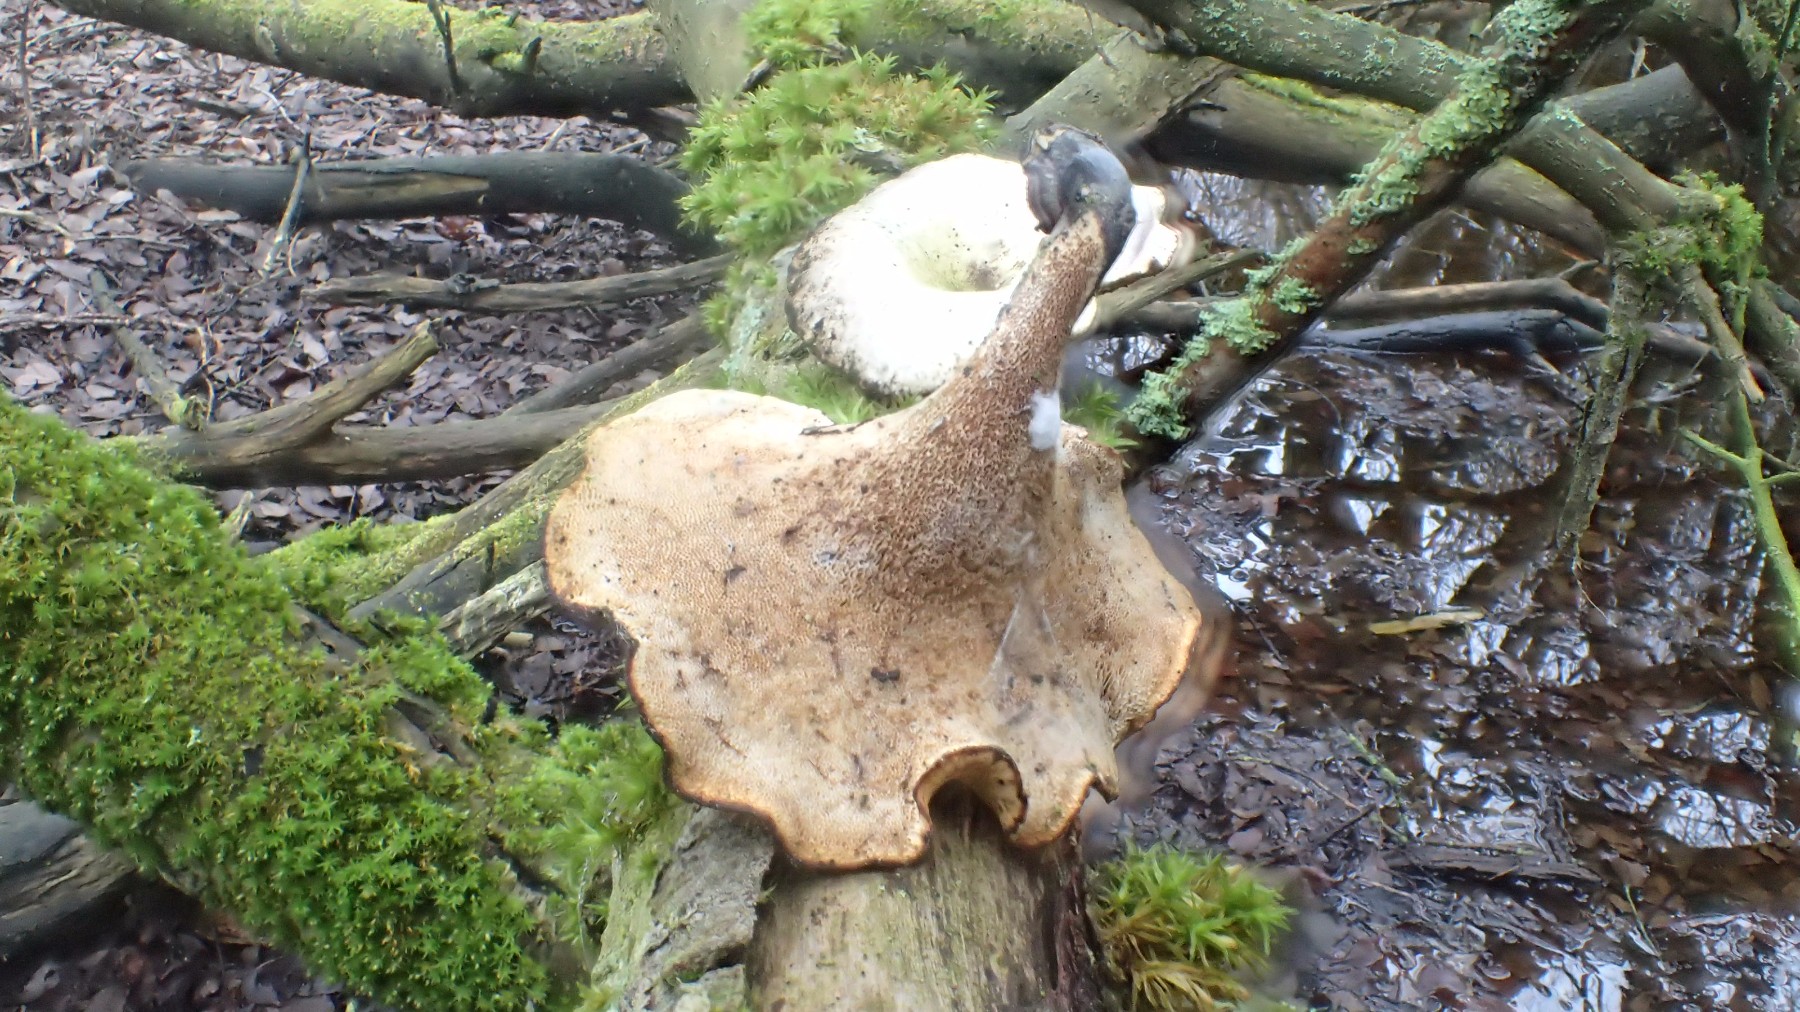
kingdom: Fungi
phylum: Basidiomycota
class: Agaricomycetes
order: Polyporales
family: Polyporaceae
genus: Cerioporus
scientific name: Cerioporus varius
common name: foranderlig stilkporesvamp
